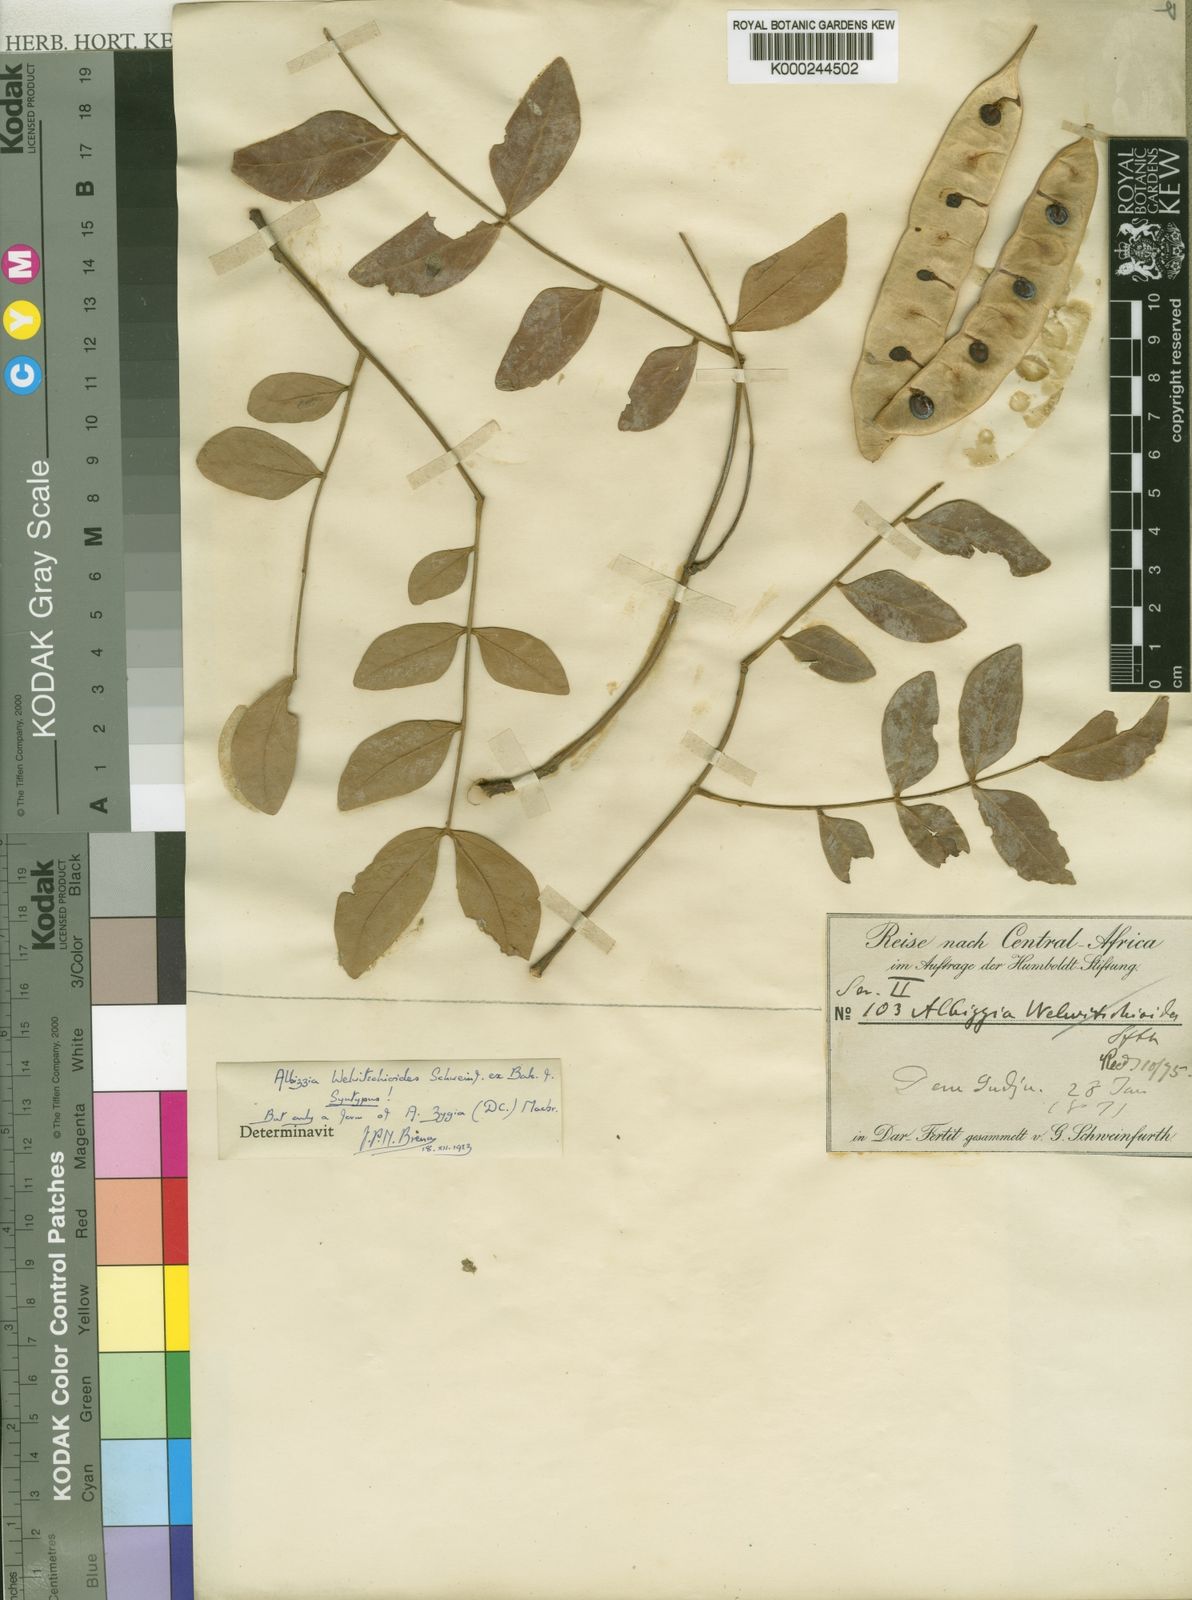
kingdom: Plantae
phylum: Tracheophyta
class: Magnoliopsida
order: Fabales
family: Fabaceae
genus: Albizia
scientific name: Albizia zygia
